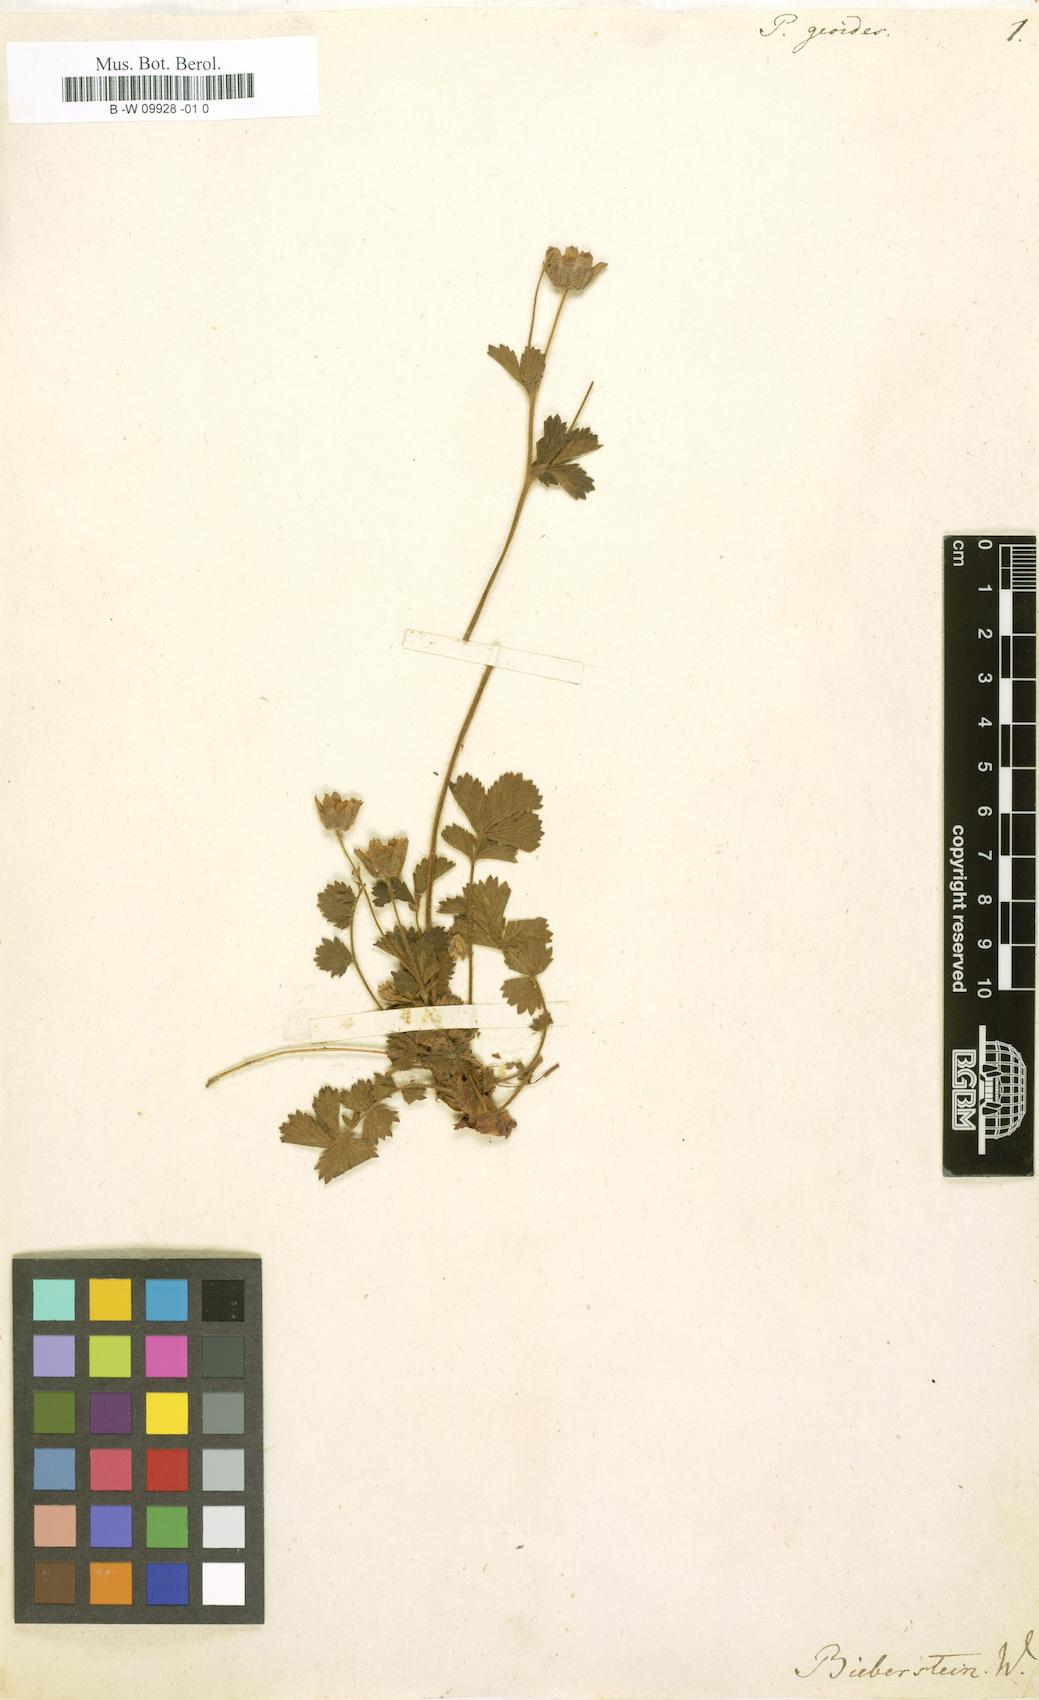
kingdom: Plantae
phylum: Tracheophyta
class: Magnoliopsida
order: Rosales
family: Rosaceae
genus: Drymocallis
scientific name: Drymocallis geoides
